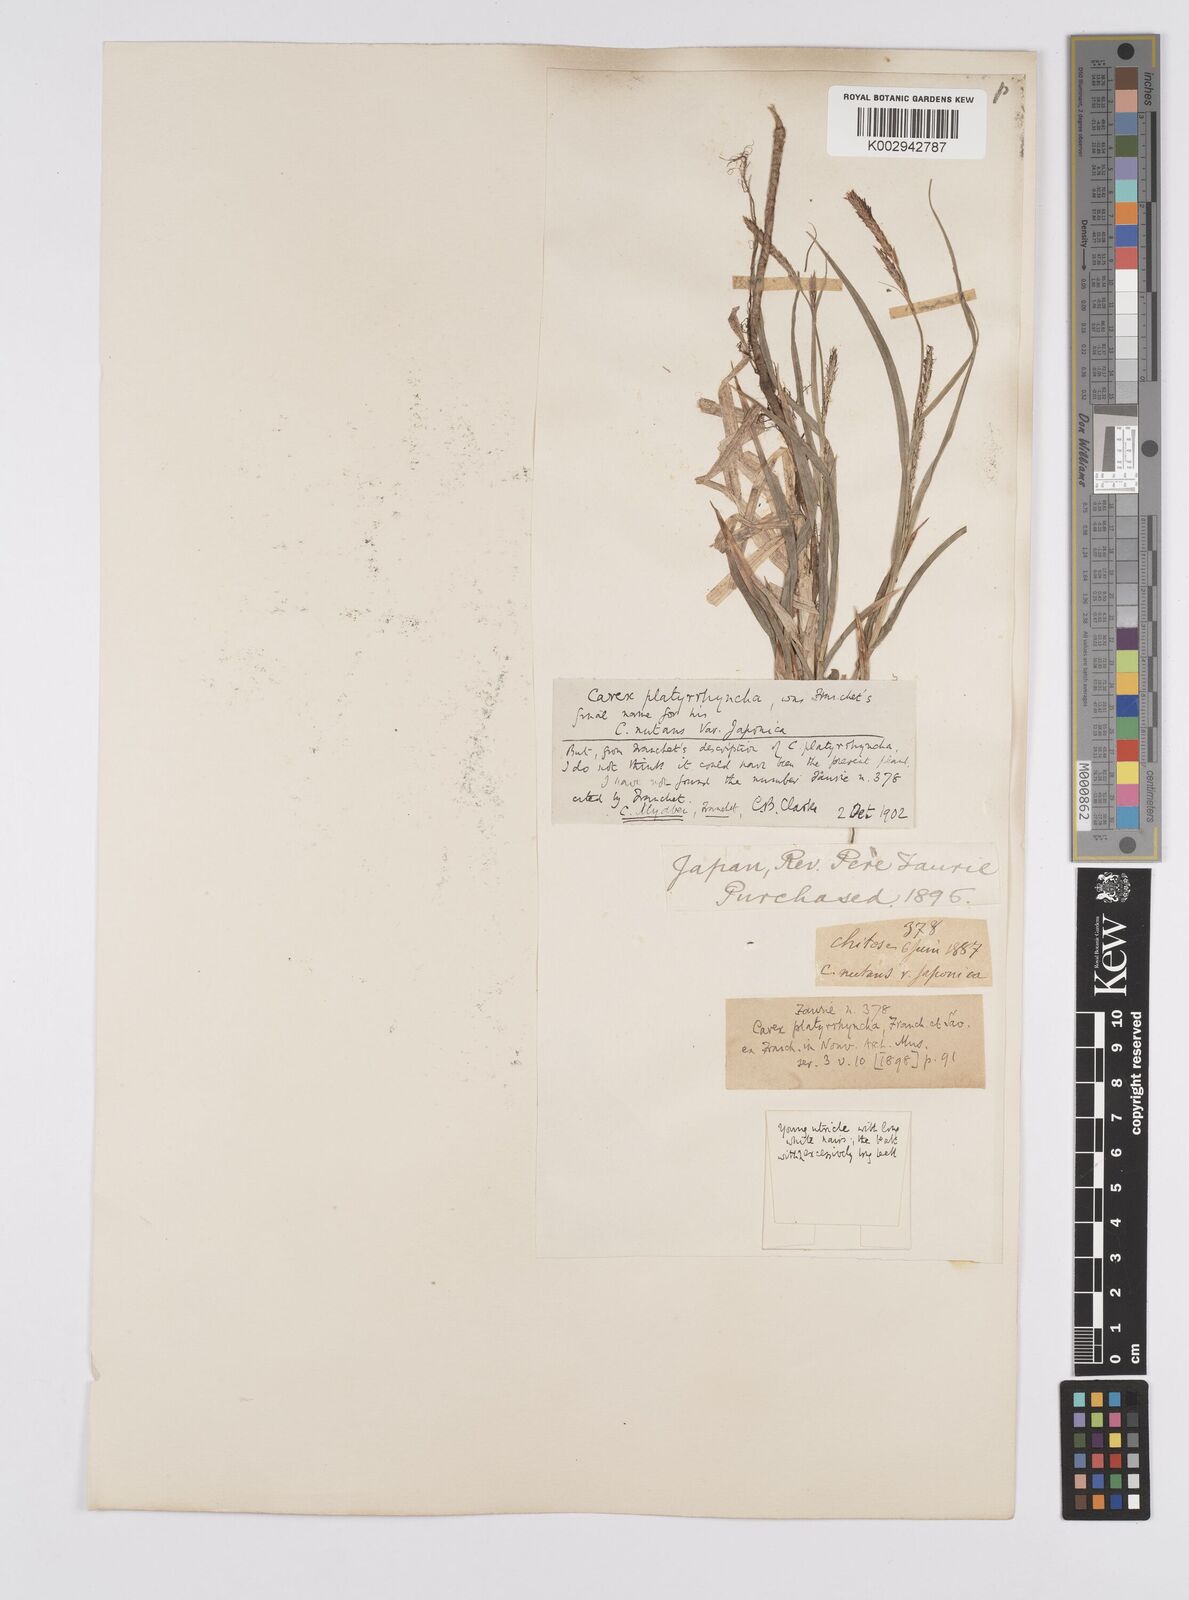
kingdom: Plantae
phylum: Tracheophyta
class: Liliopsida
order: Poales
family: Cyperaceae
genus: Carex
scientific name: Carex fedia
